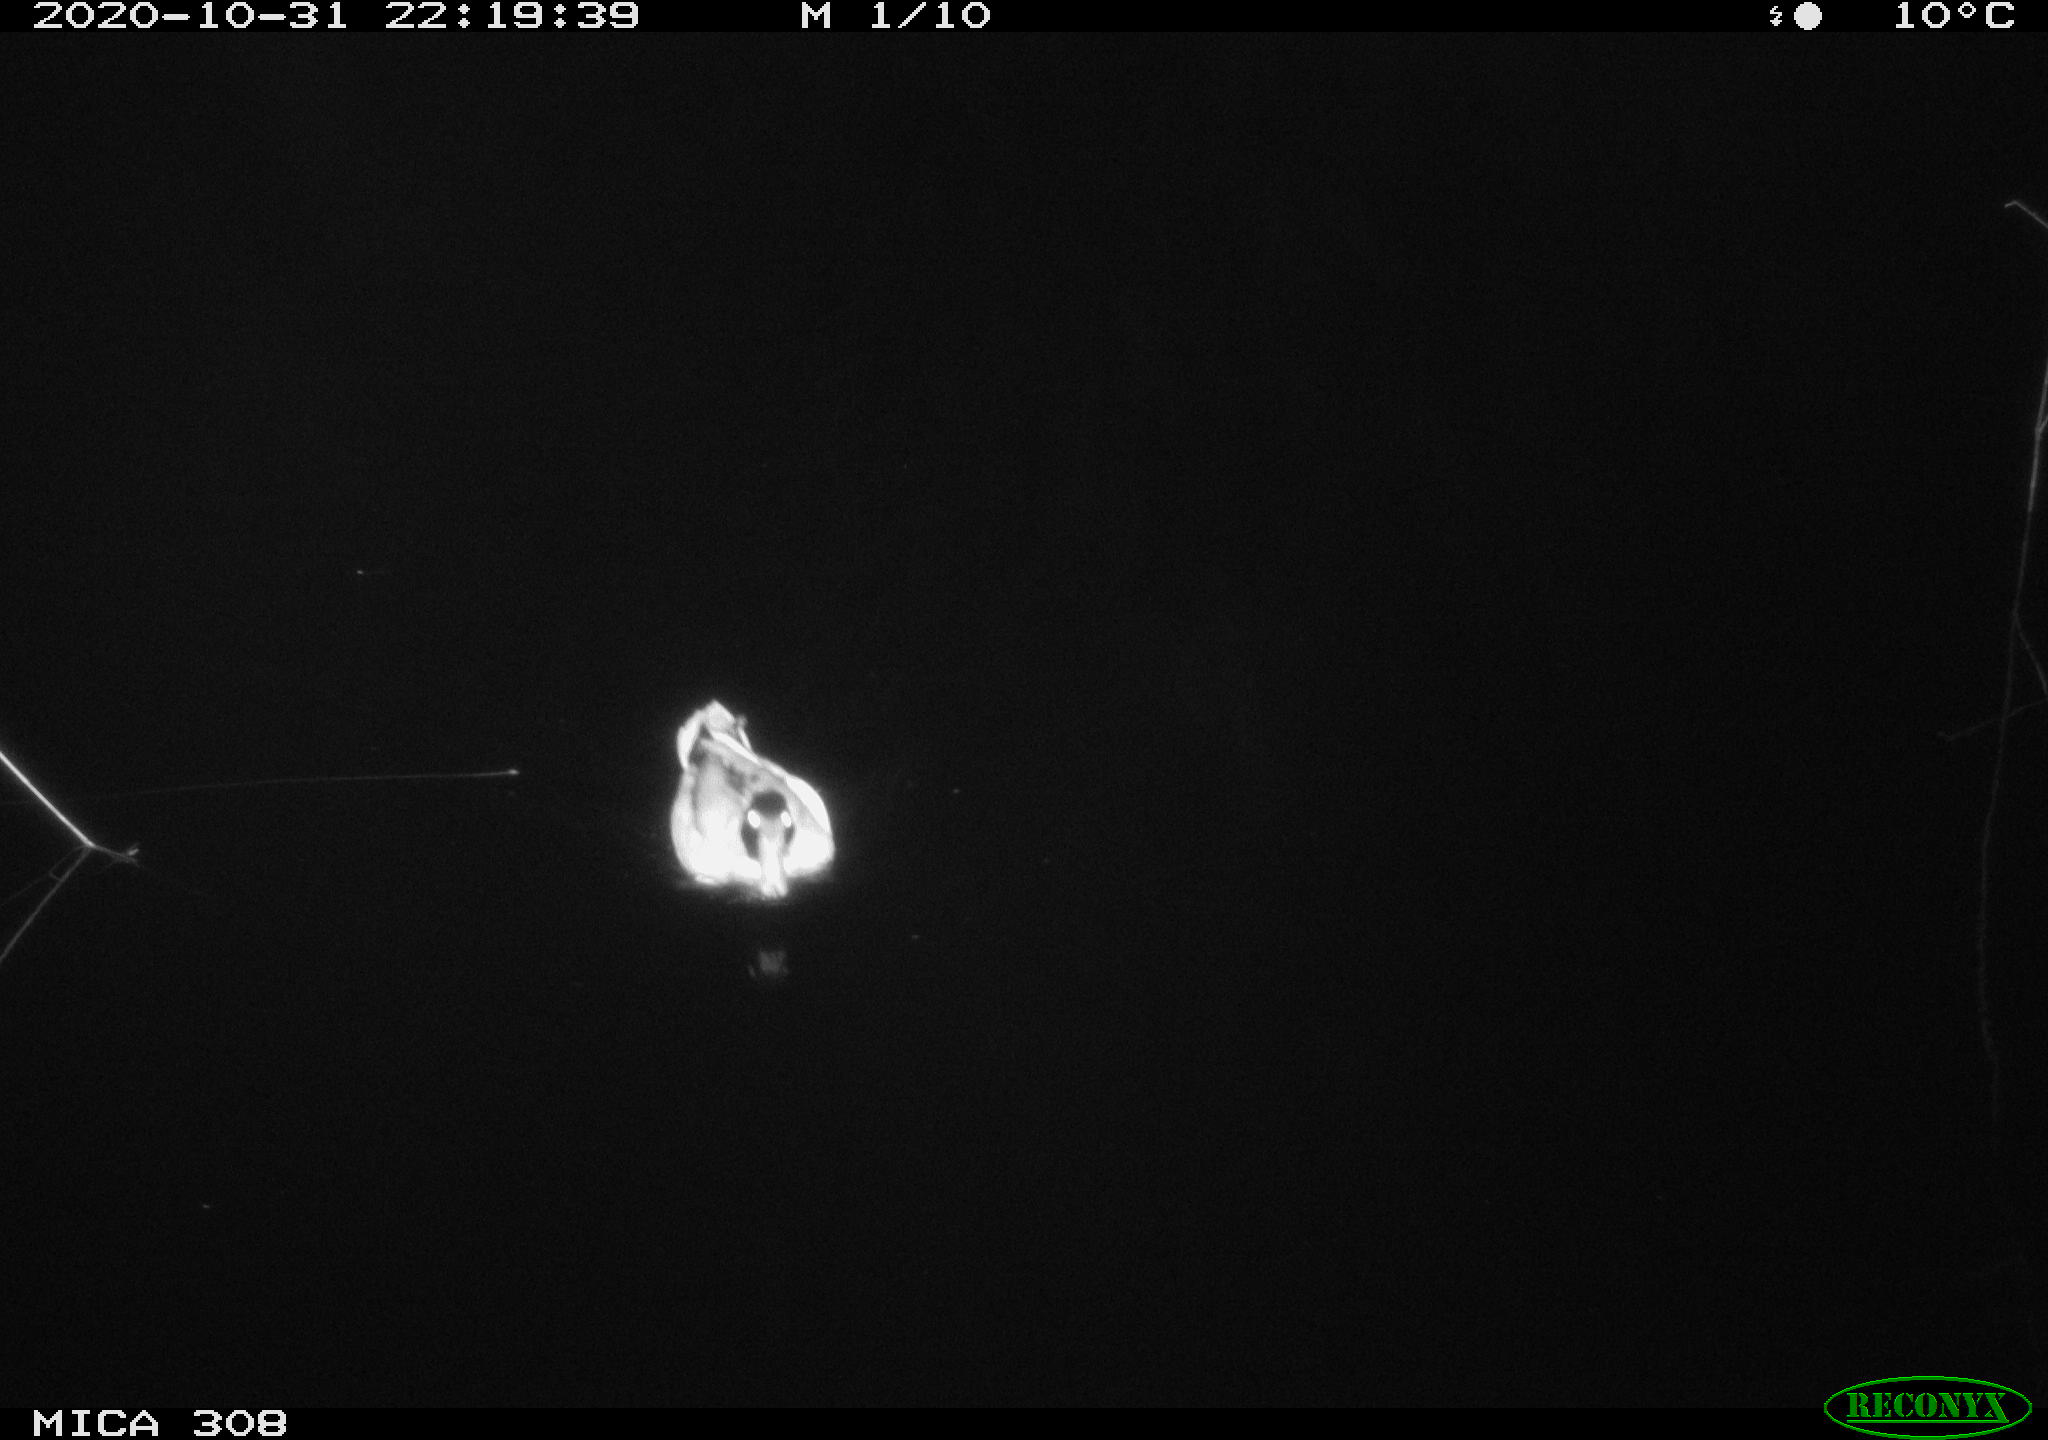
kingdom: Animalia
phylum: Chordata
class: Aves
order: Anseriformes
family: Anatidae
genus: Anas
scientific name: Anas platyrhynchos
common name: Mallard
